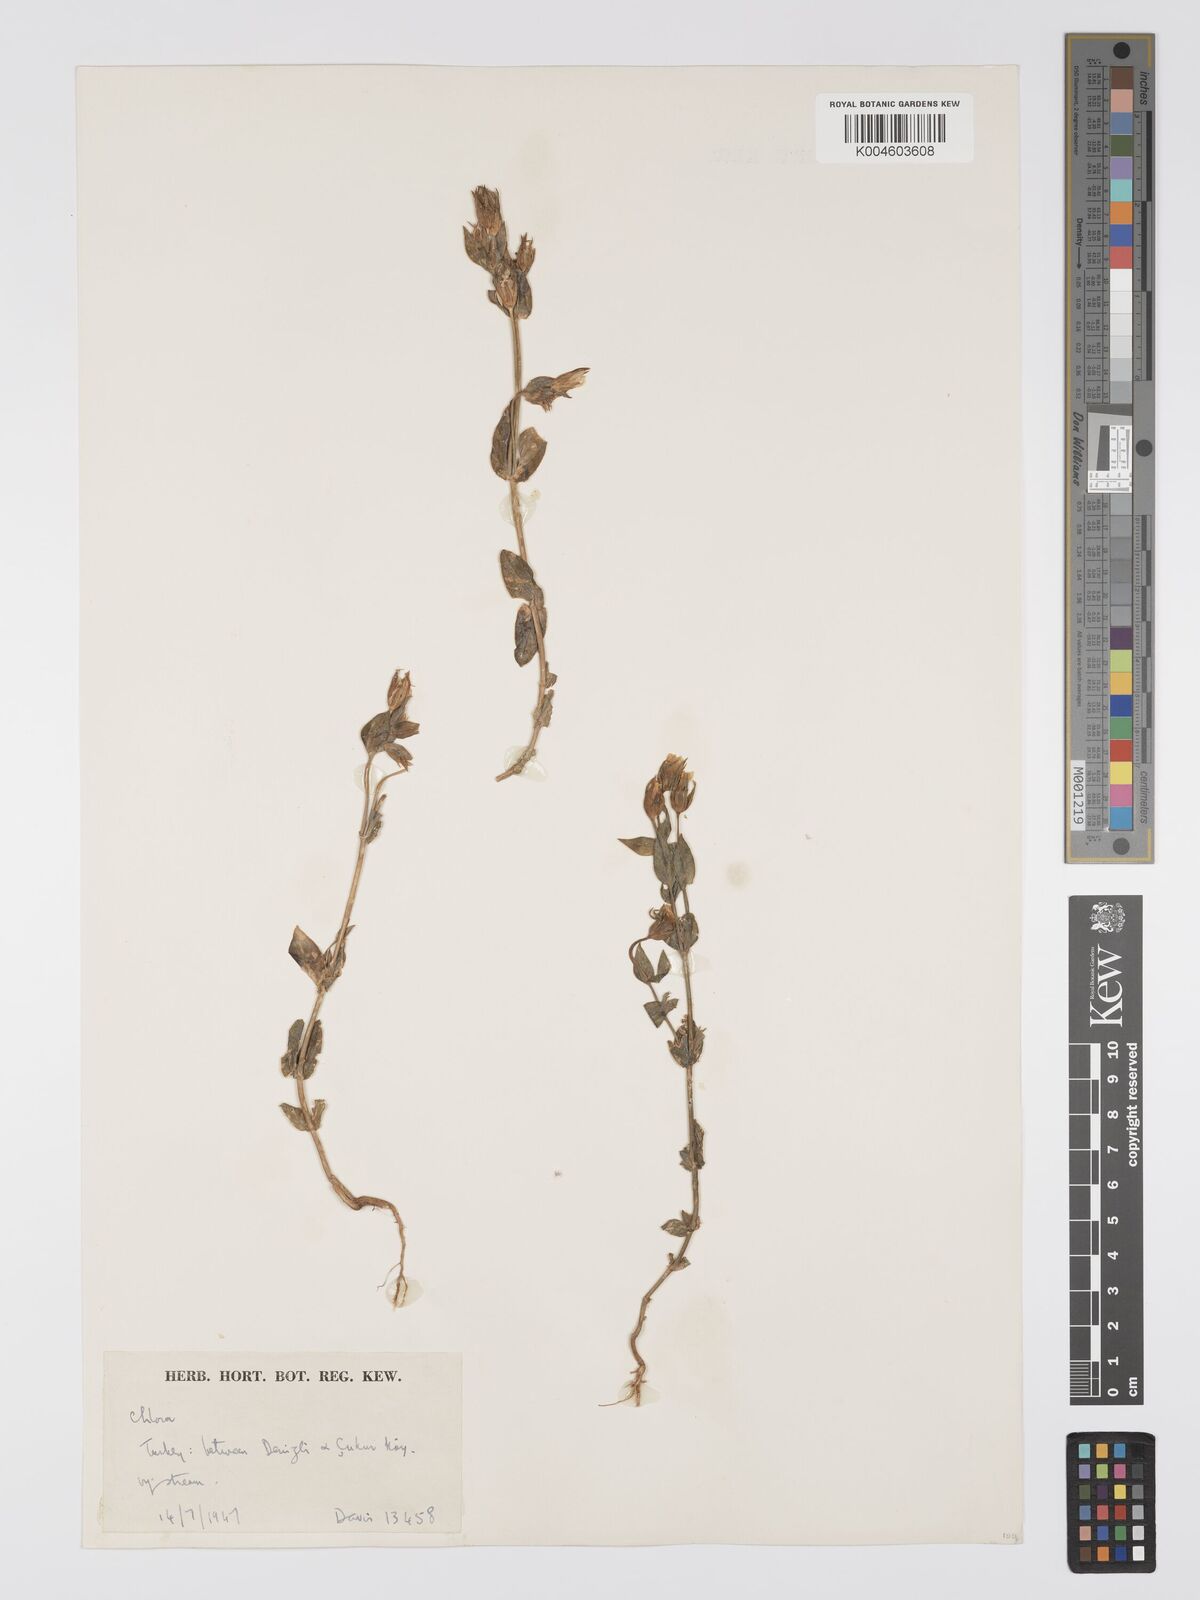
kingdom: Plantae
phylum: Tracheophyta
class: Magnoliopsida
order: Gentianales
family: Gentianaceae
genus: Blackstonia
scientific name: Blackstonia acuminata
